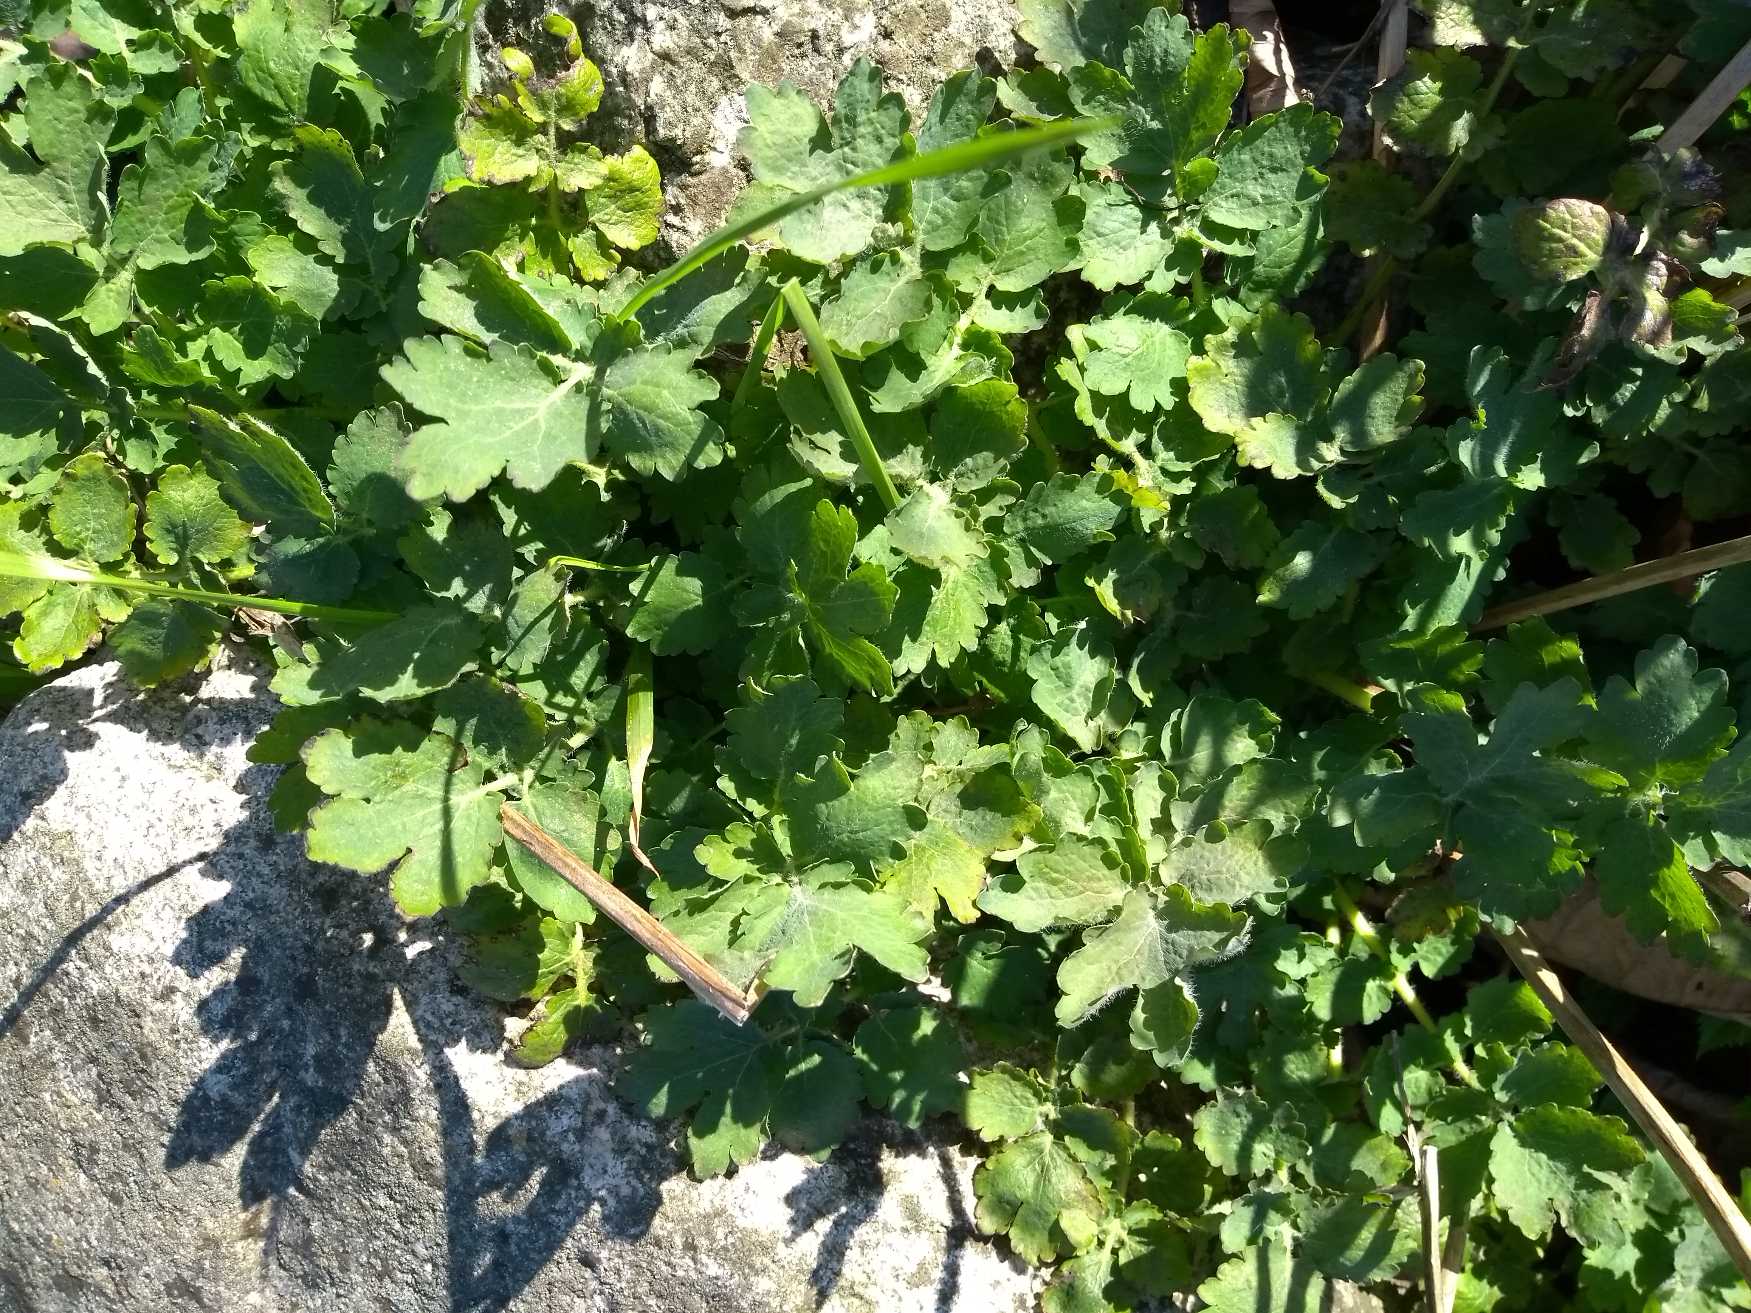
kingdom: Plantae
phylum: Tracheophyta
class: Magnoliopsida
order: Ranunculales
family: Papaveraceae
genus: Chelidonium
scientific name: Chelidonium majus
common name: Svaleurt
